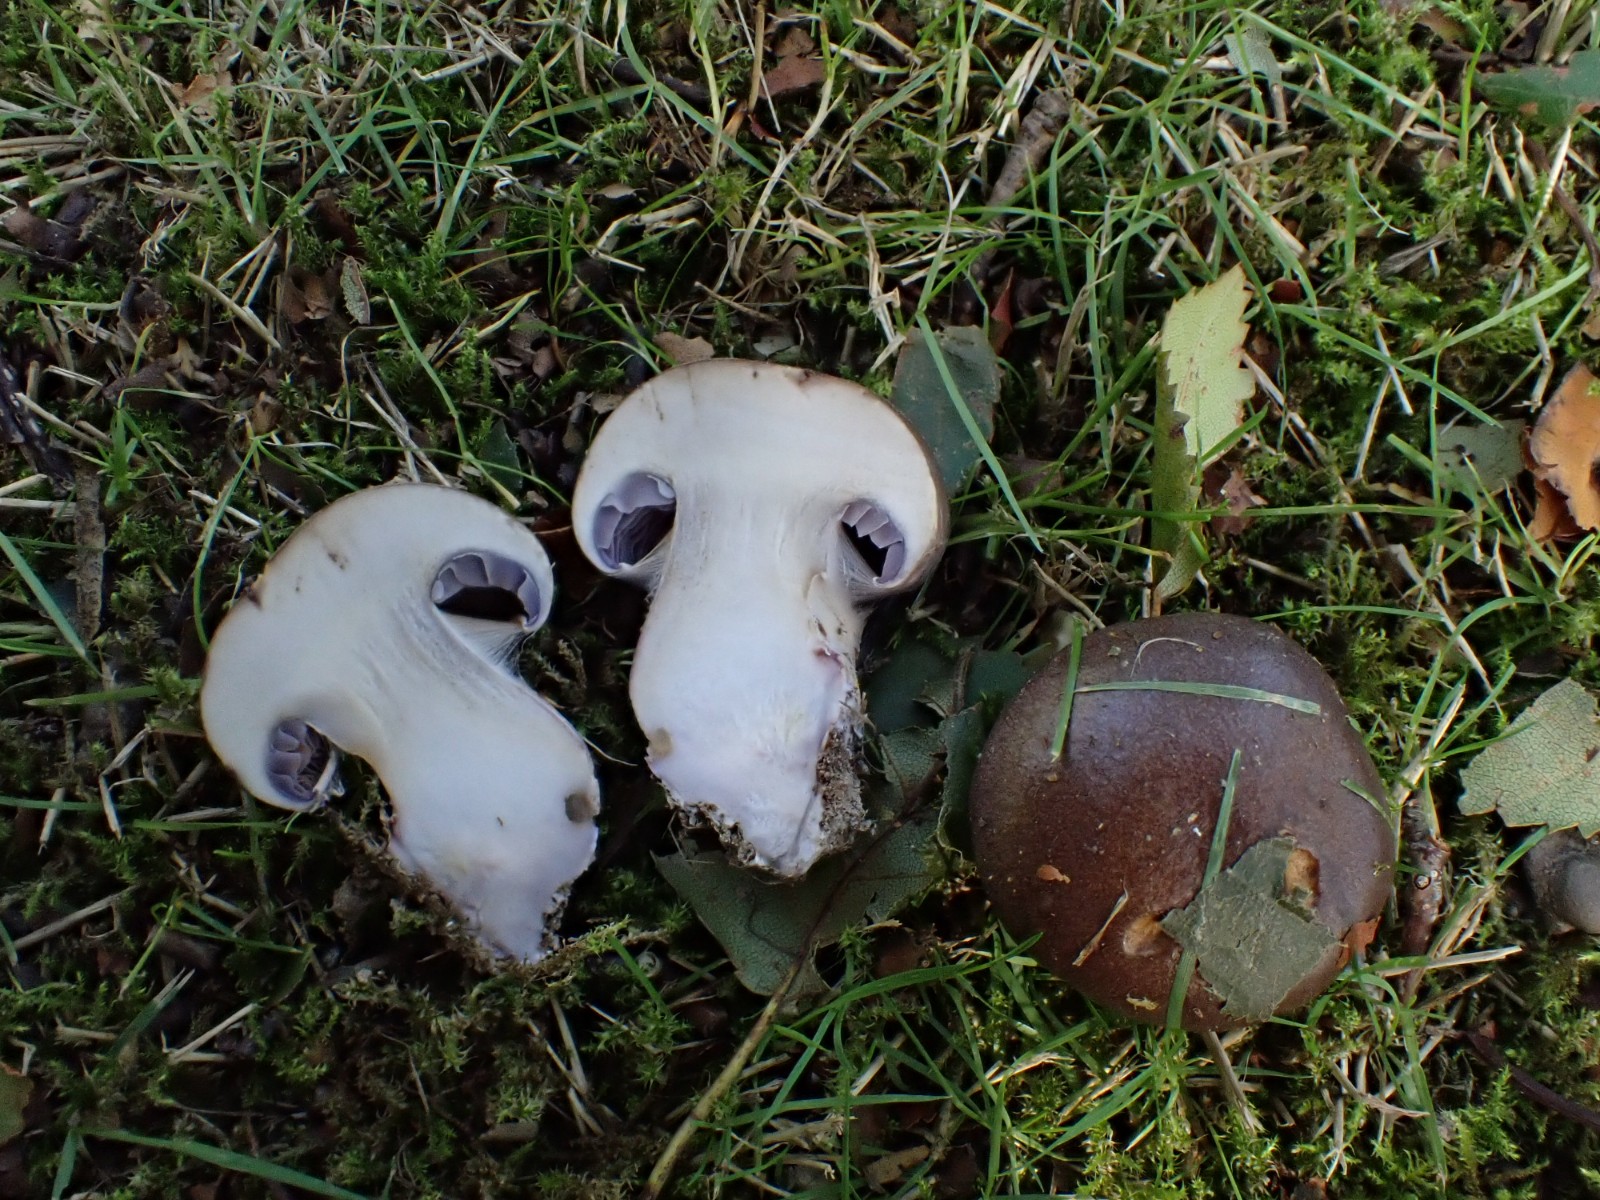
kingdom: Fungi
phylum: Basidiomycota
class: Agaricomycetes
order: Agaricales
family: Cortinariaceae
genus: Phlegmacium
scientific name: Phlegmacium balteatocumatile
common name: violettrådet slørhat
